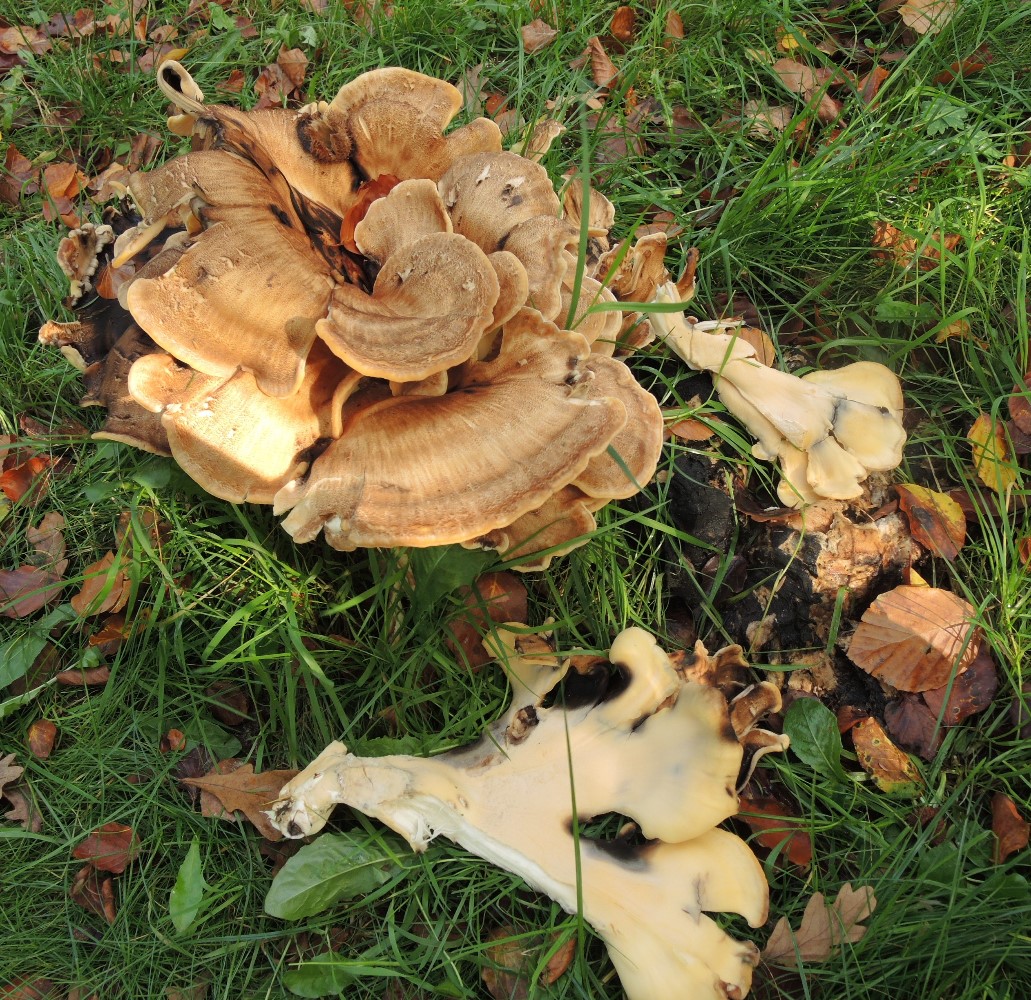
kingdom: Fungi
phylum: Basidiomycota
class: Agaricomycetes
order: Polyporales
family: Meripilaceae
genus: Meripilus
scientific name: Meripilus giganteus
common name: kæmpeporesvamp
